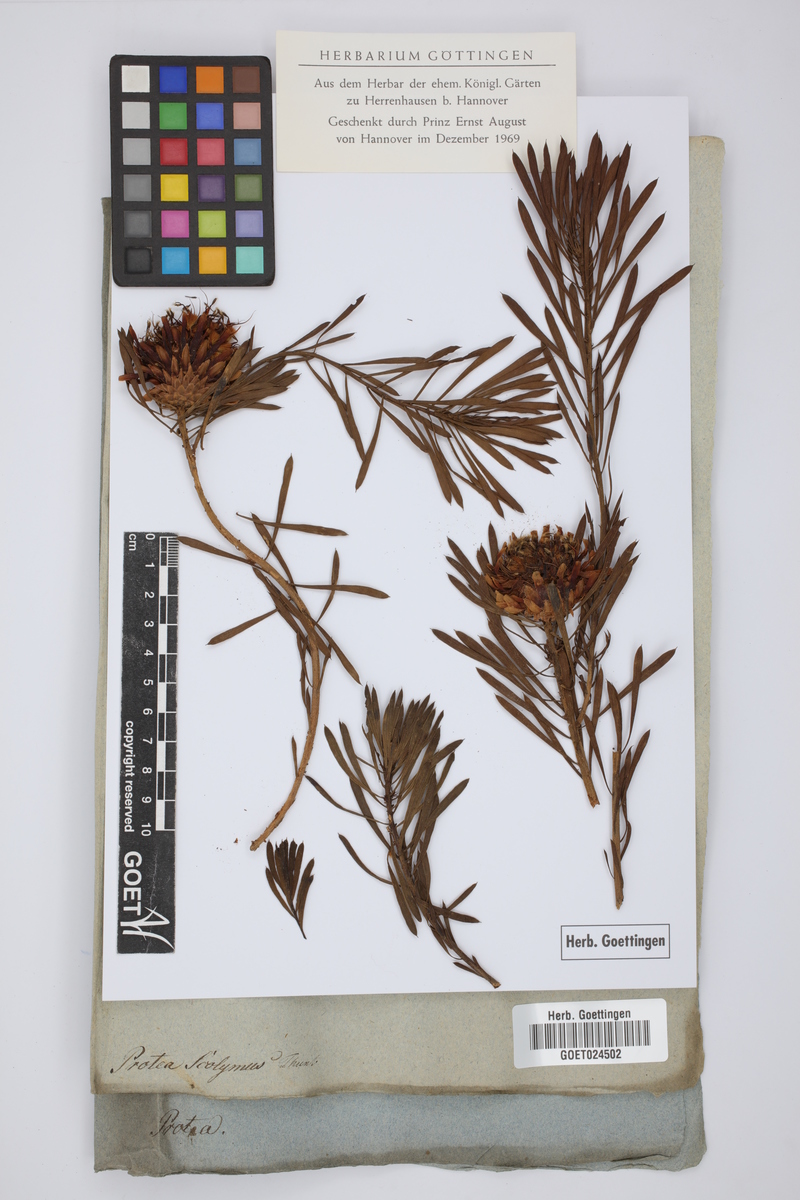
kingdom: Plantae
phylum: Tracheophyta
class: Magnoliopsida
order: Proteales
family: Proteaceae
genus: Protea
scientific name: Protea scolymocephala
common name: Thistle sugarbush
